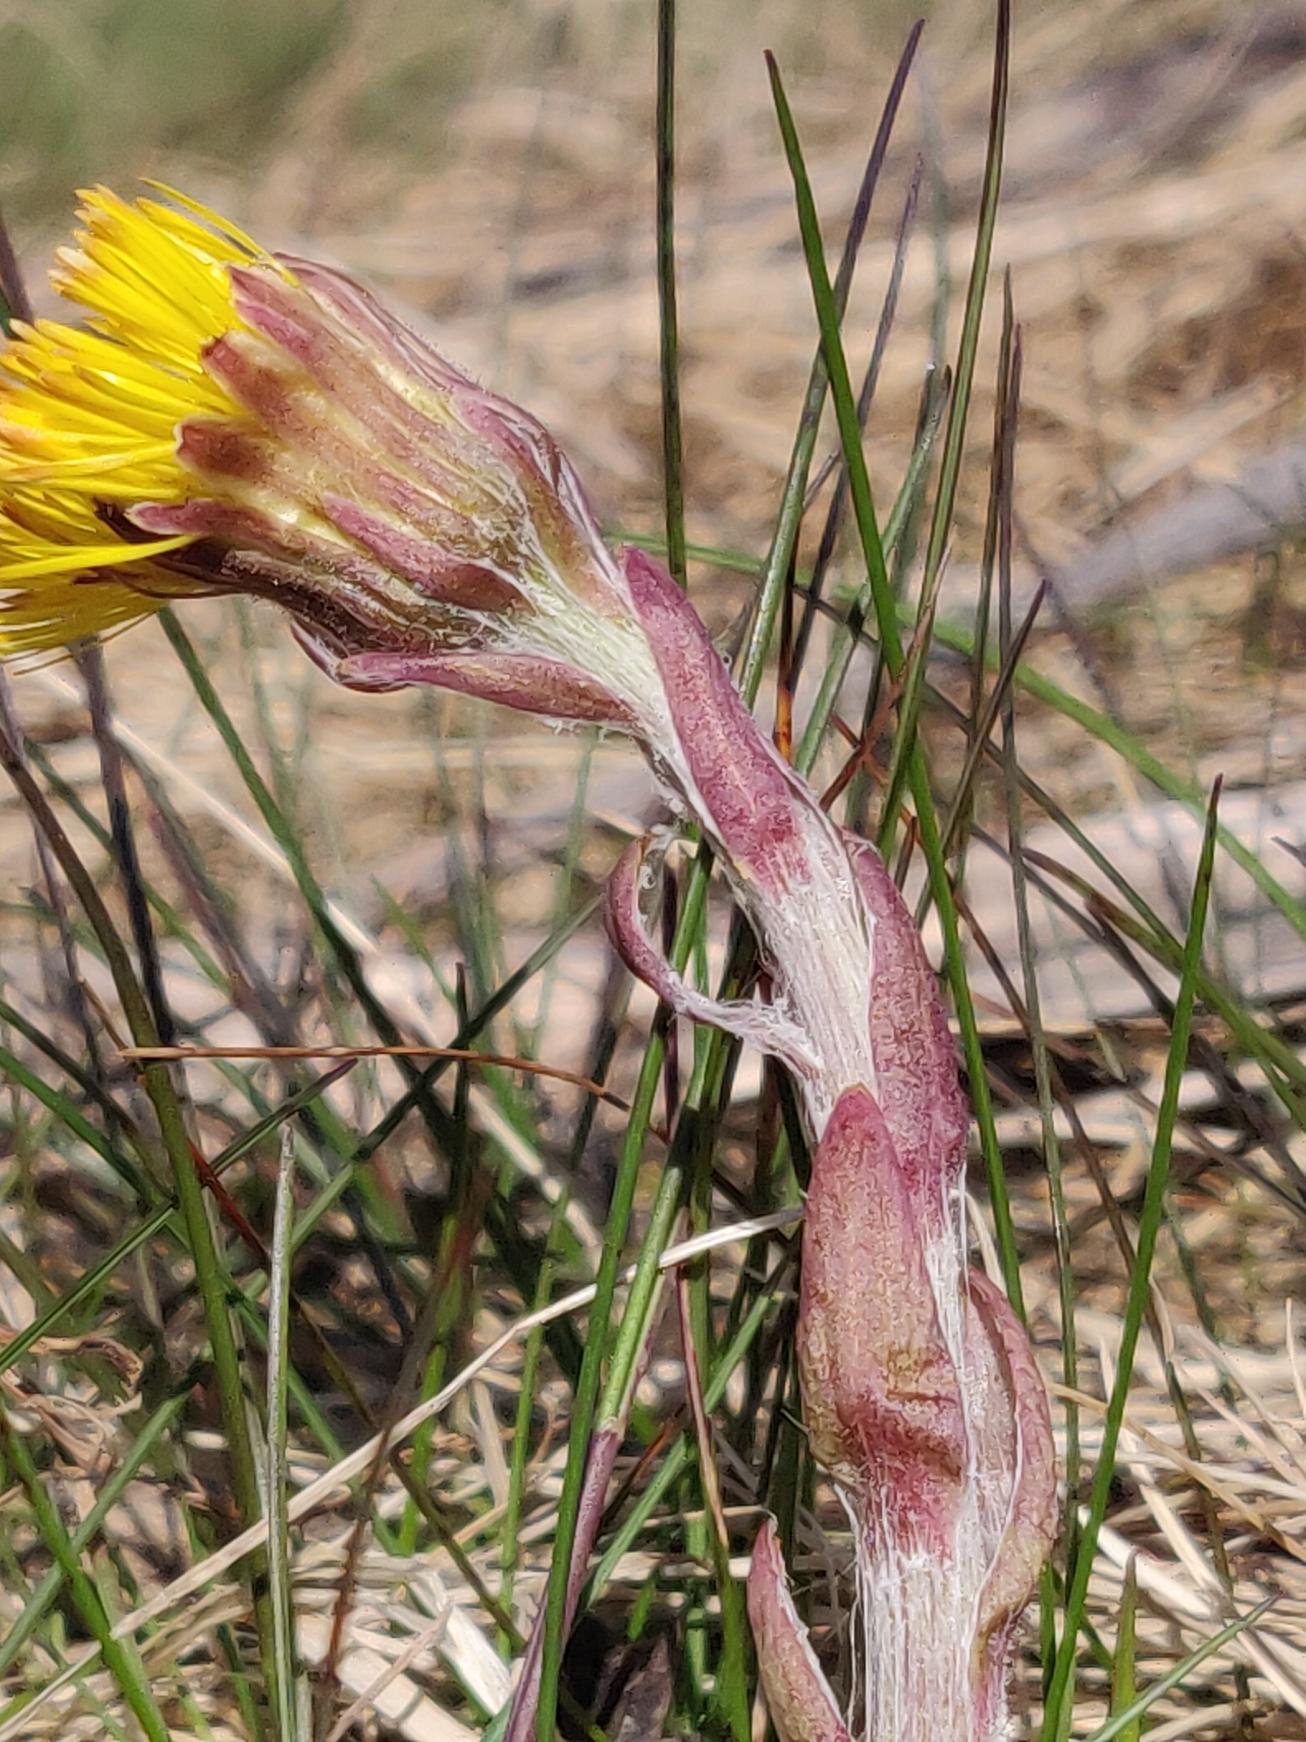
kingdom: Plantae
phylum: Tracheophyta
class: Magnoliopsida
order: Asterales
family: Asteraceae
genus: Tussilago
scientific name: Tussilago farfara
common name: Følfod
